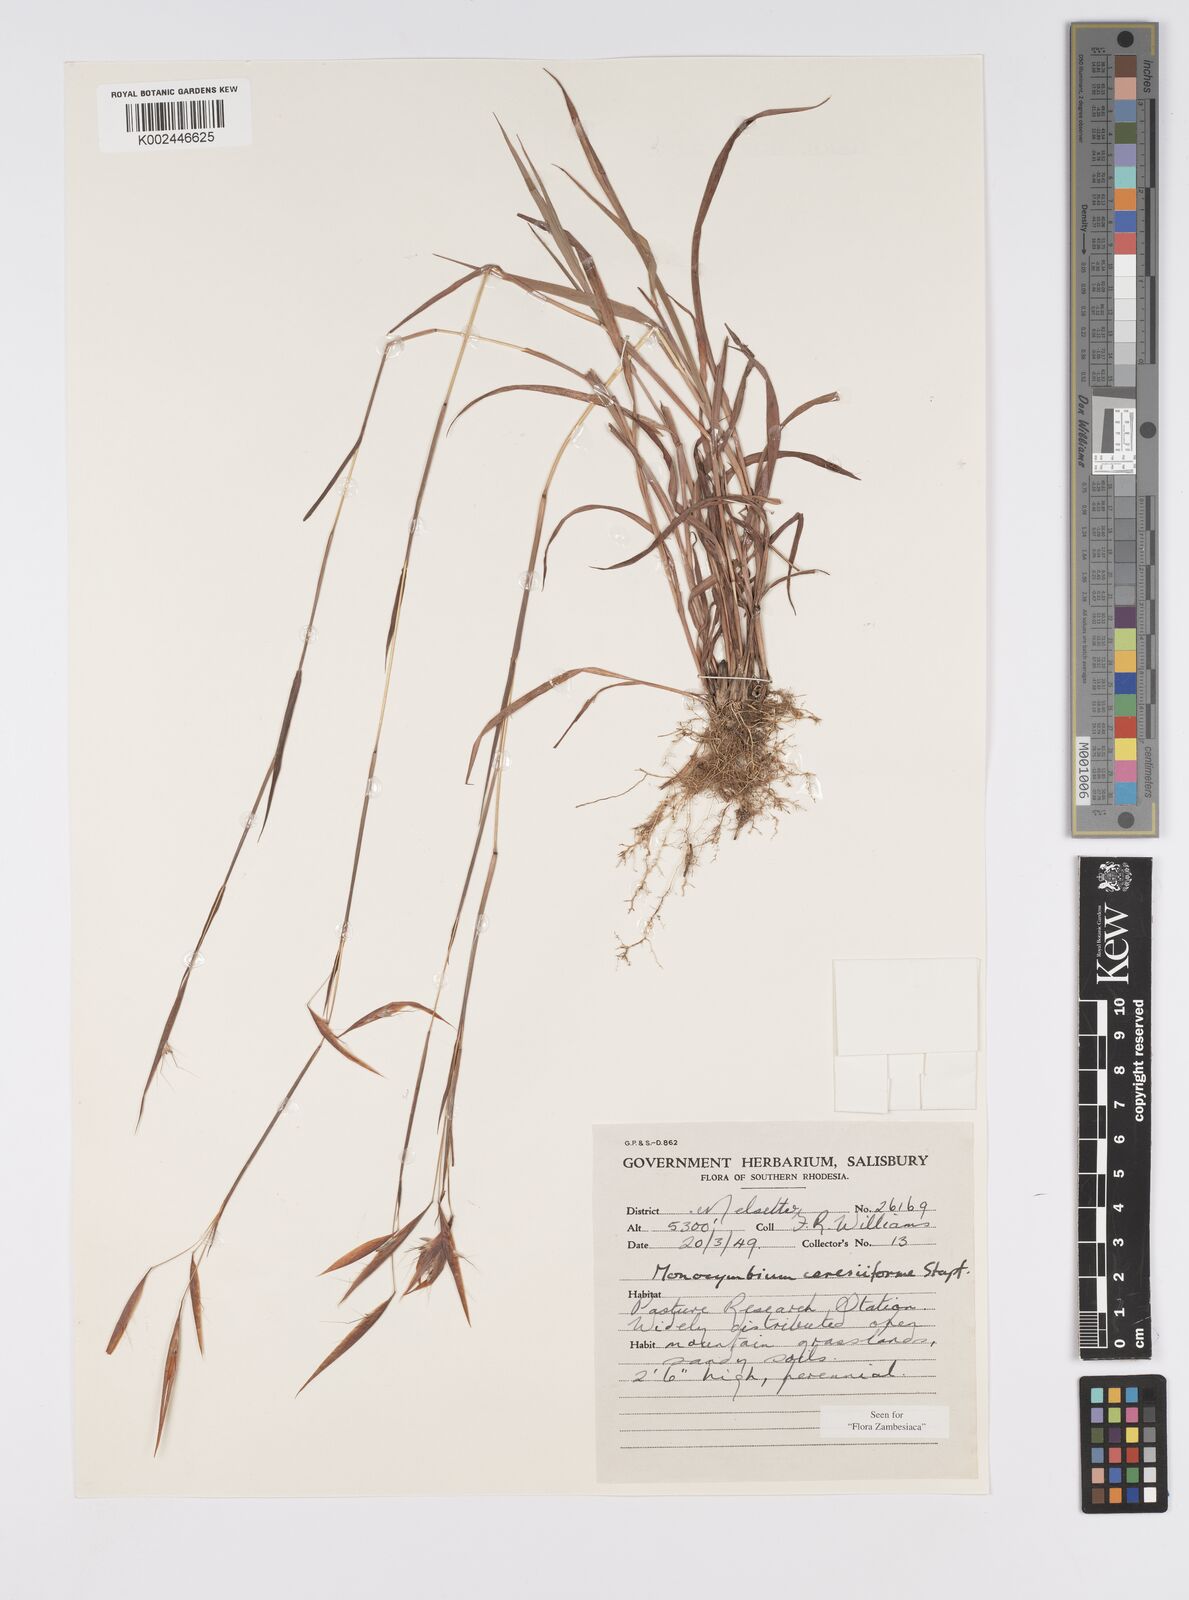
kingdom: Plantae
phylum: Tracheophyta
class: Liliopsida
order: Poales
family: Poaceae
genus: Monocymbium
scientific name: Monocymbium ceresiiforme
